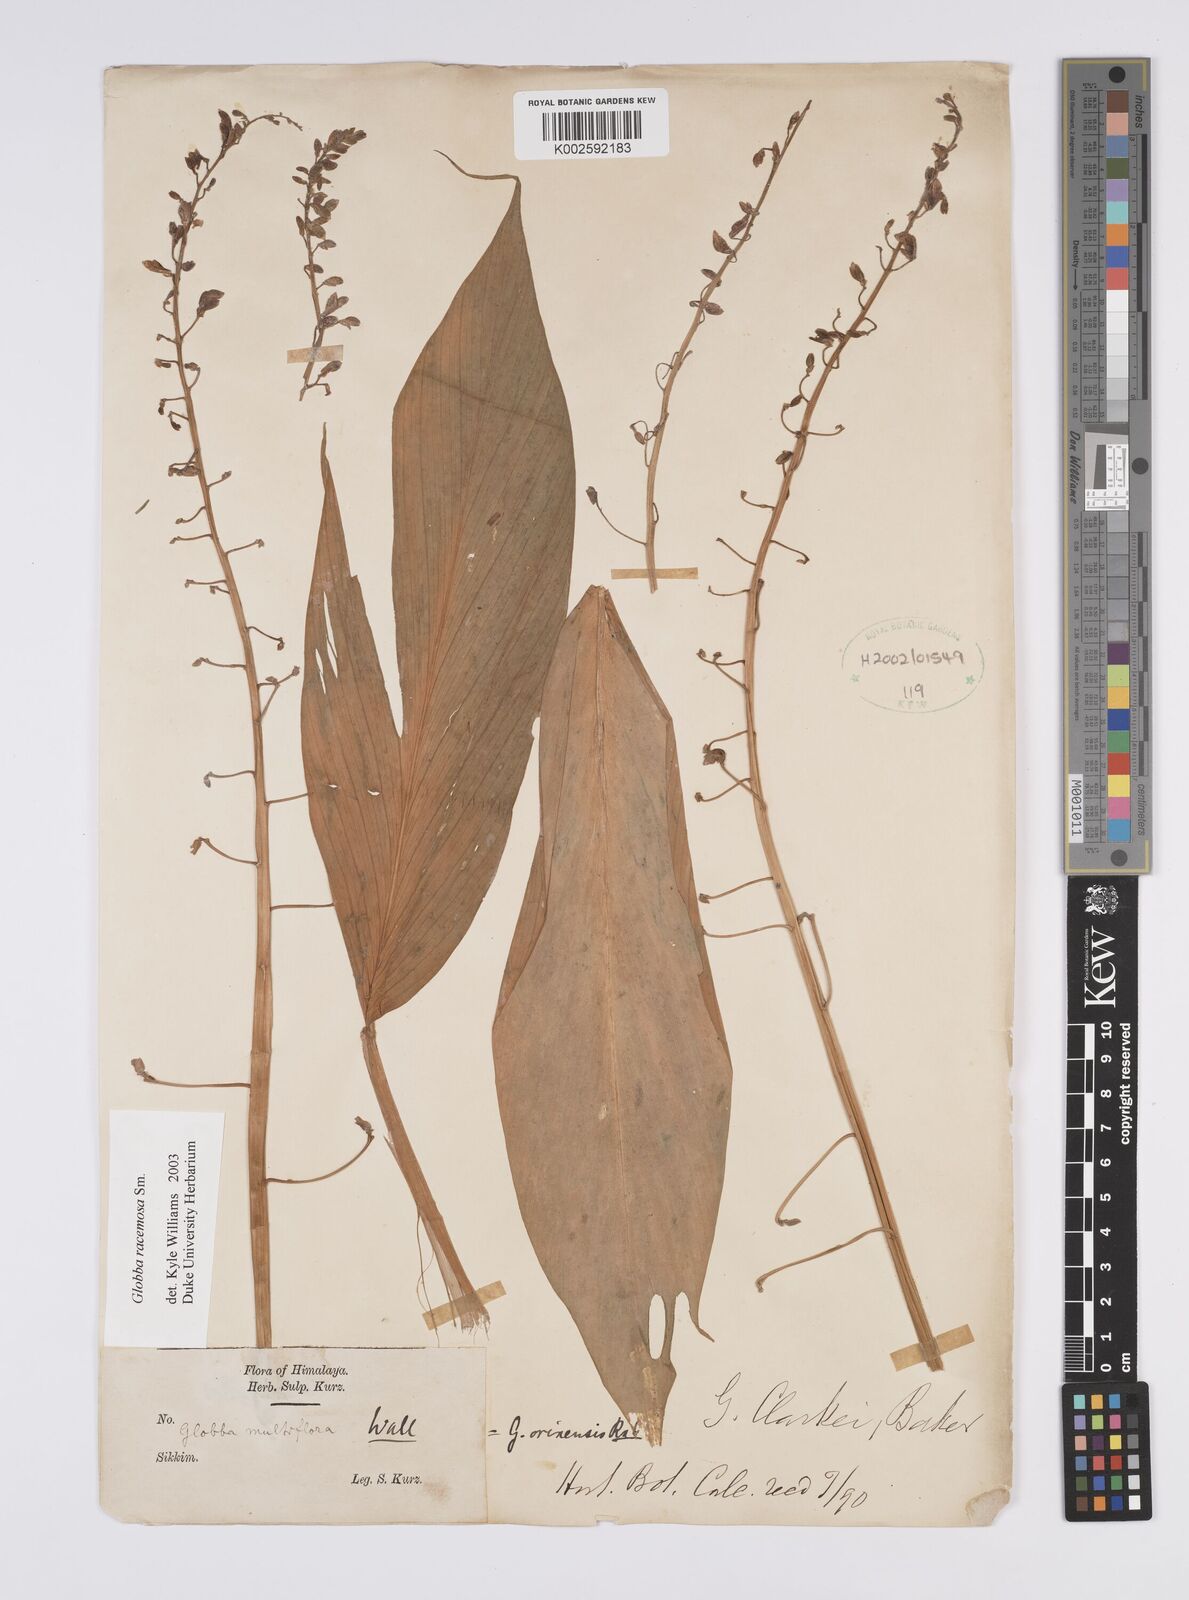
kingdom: Plantae
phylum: Tracheophyta
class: Liliopsida
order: Zingiberales
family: Zingiberaceae
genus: Globba
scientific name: Globba racemosa
